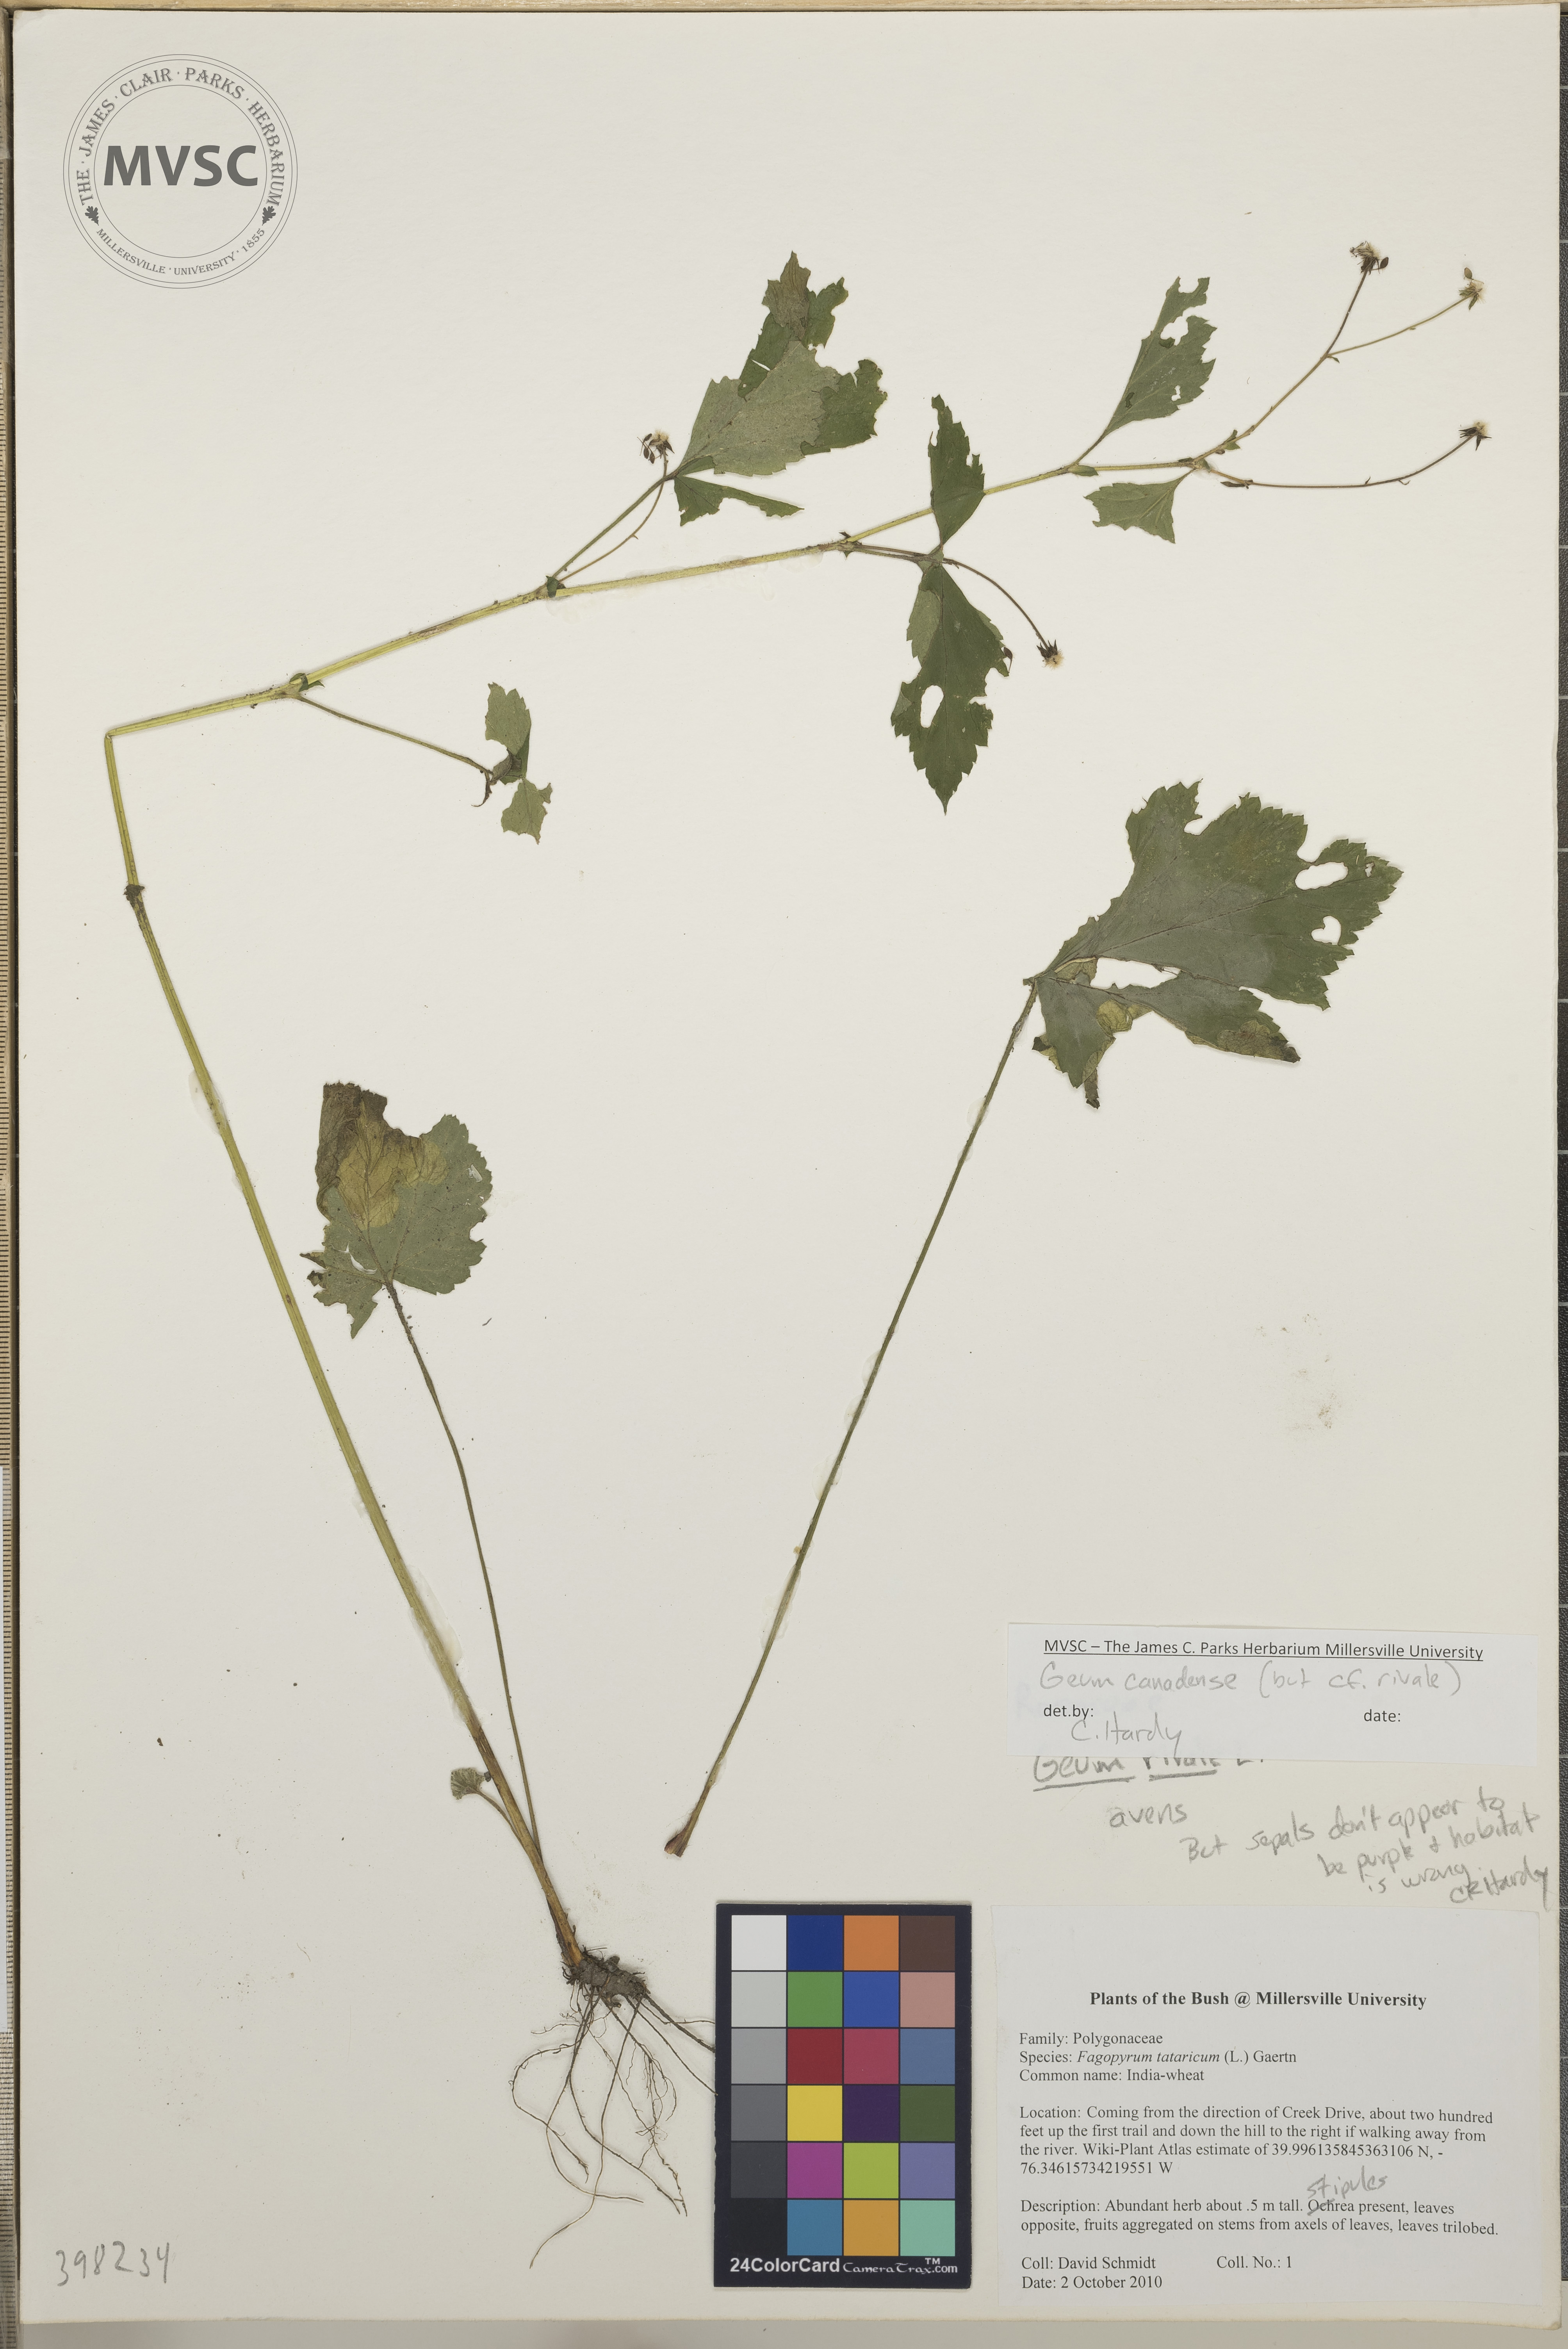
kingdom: Plantae
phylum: Tracheophyta
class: Magnoliopsida
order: Rosales
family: Rosaceae
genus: Geum
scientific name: Geum canadense
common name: Water avens
